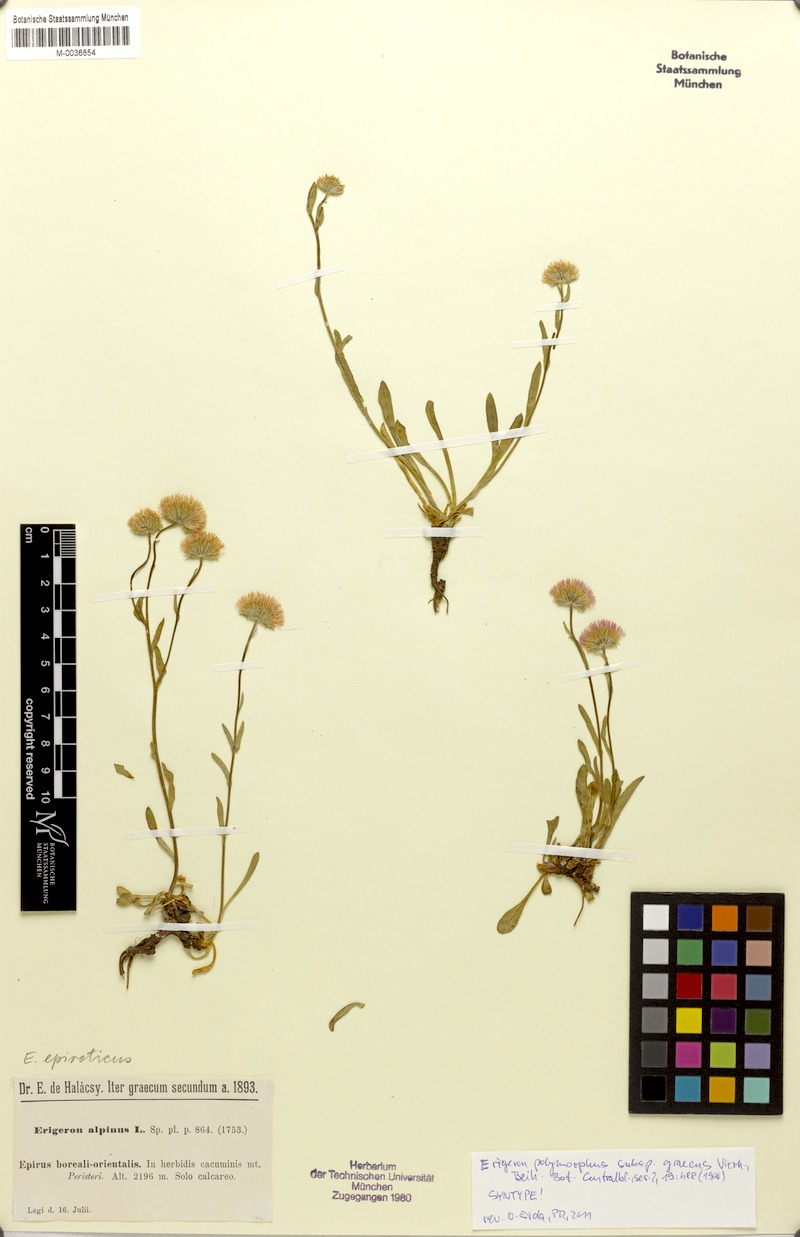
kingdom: Plantae
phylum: Tracheophyta
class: Magnoliopsida
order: Asterales
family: Asteraceae
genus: Erigeron
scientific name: Erigeron glabratus
